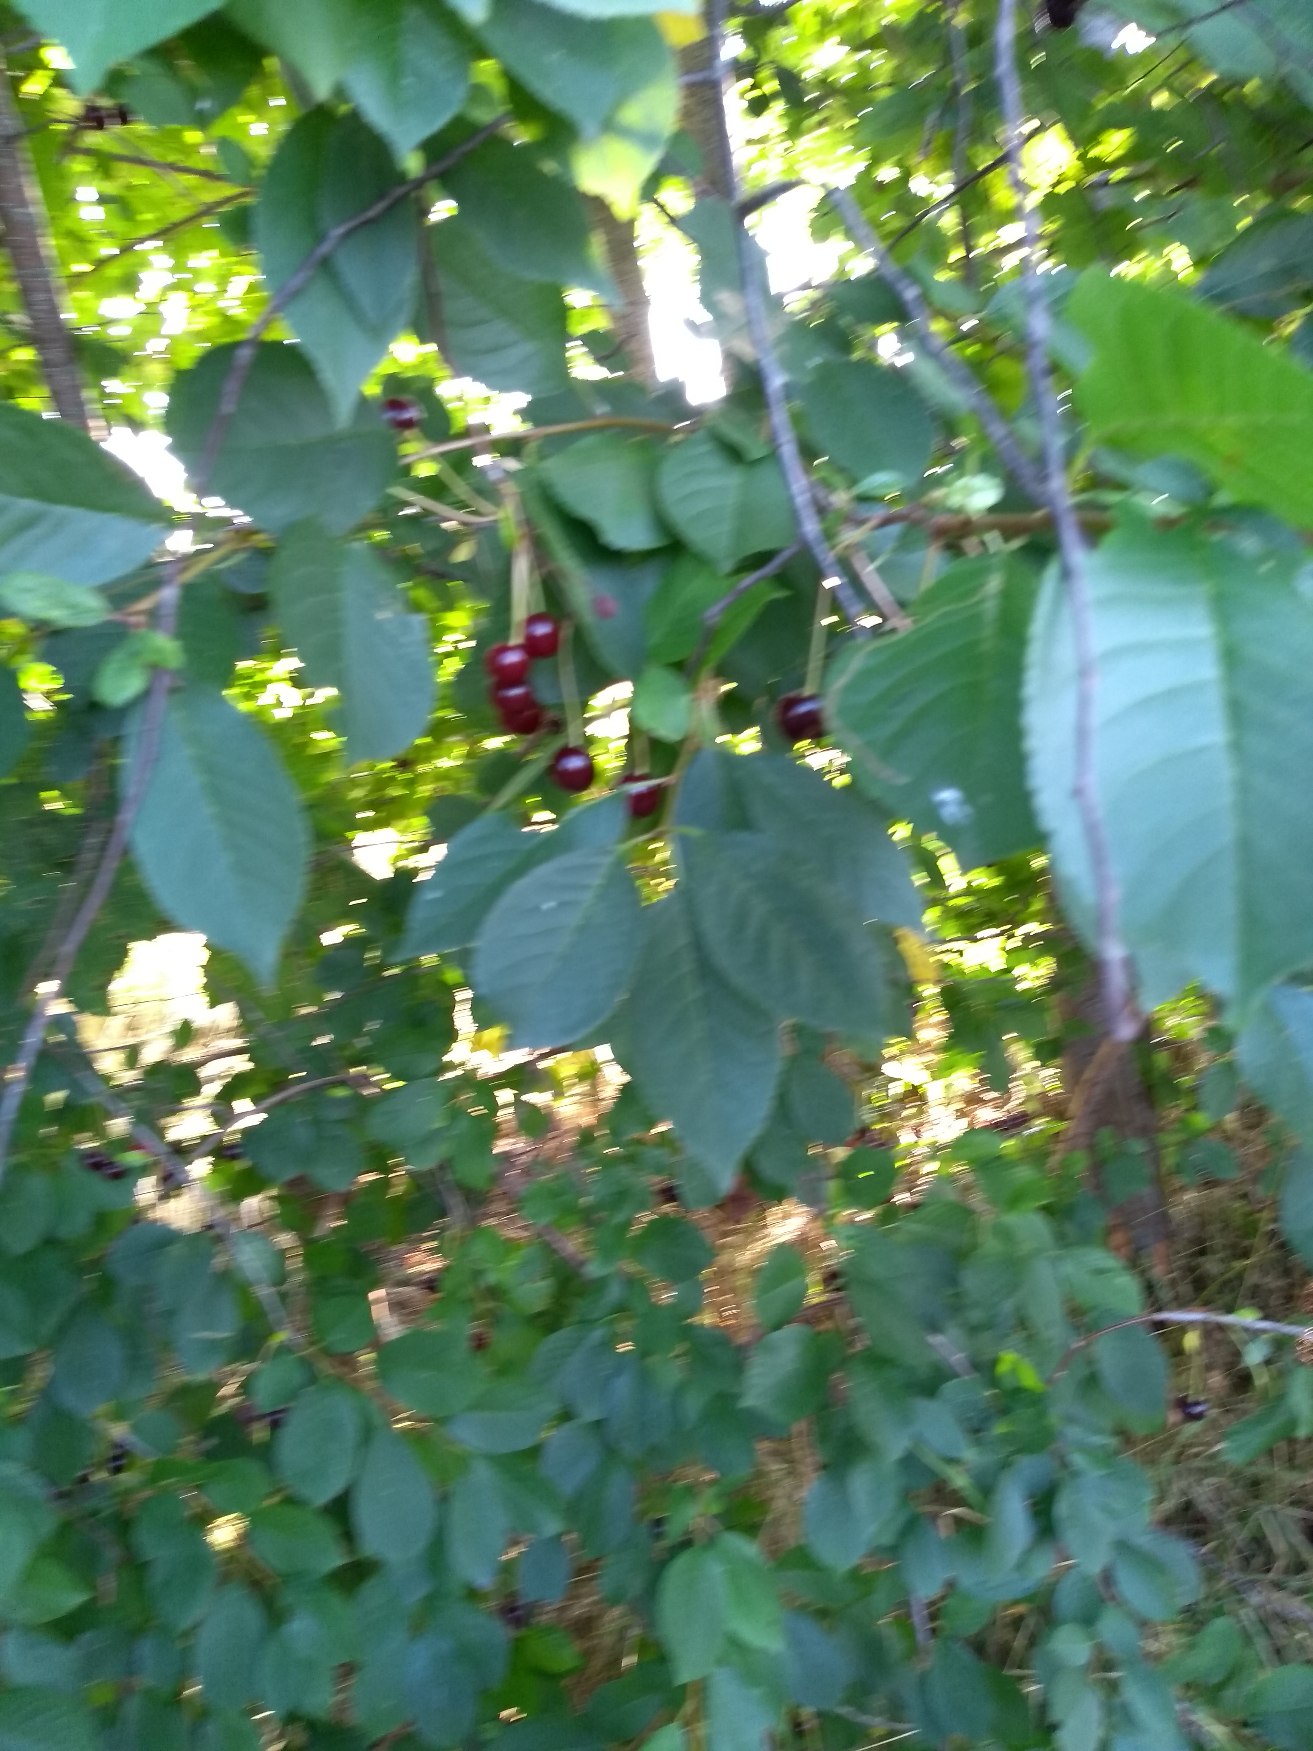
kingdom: Plantae
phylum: Tracheophyta
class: Magnoliopsida
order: Rosales
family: Rosaceae
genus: Prunus
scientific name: Prunus
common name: Blommeslægten
